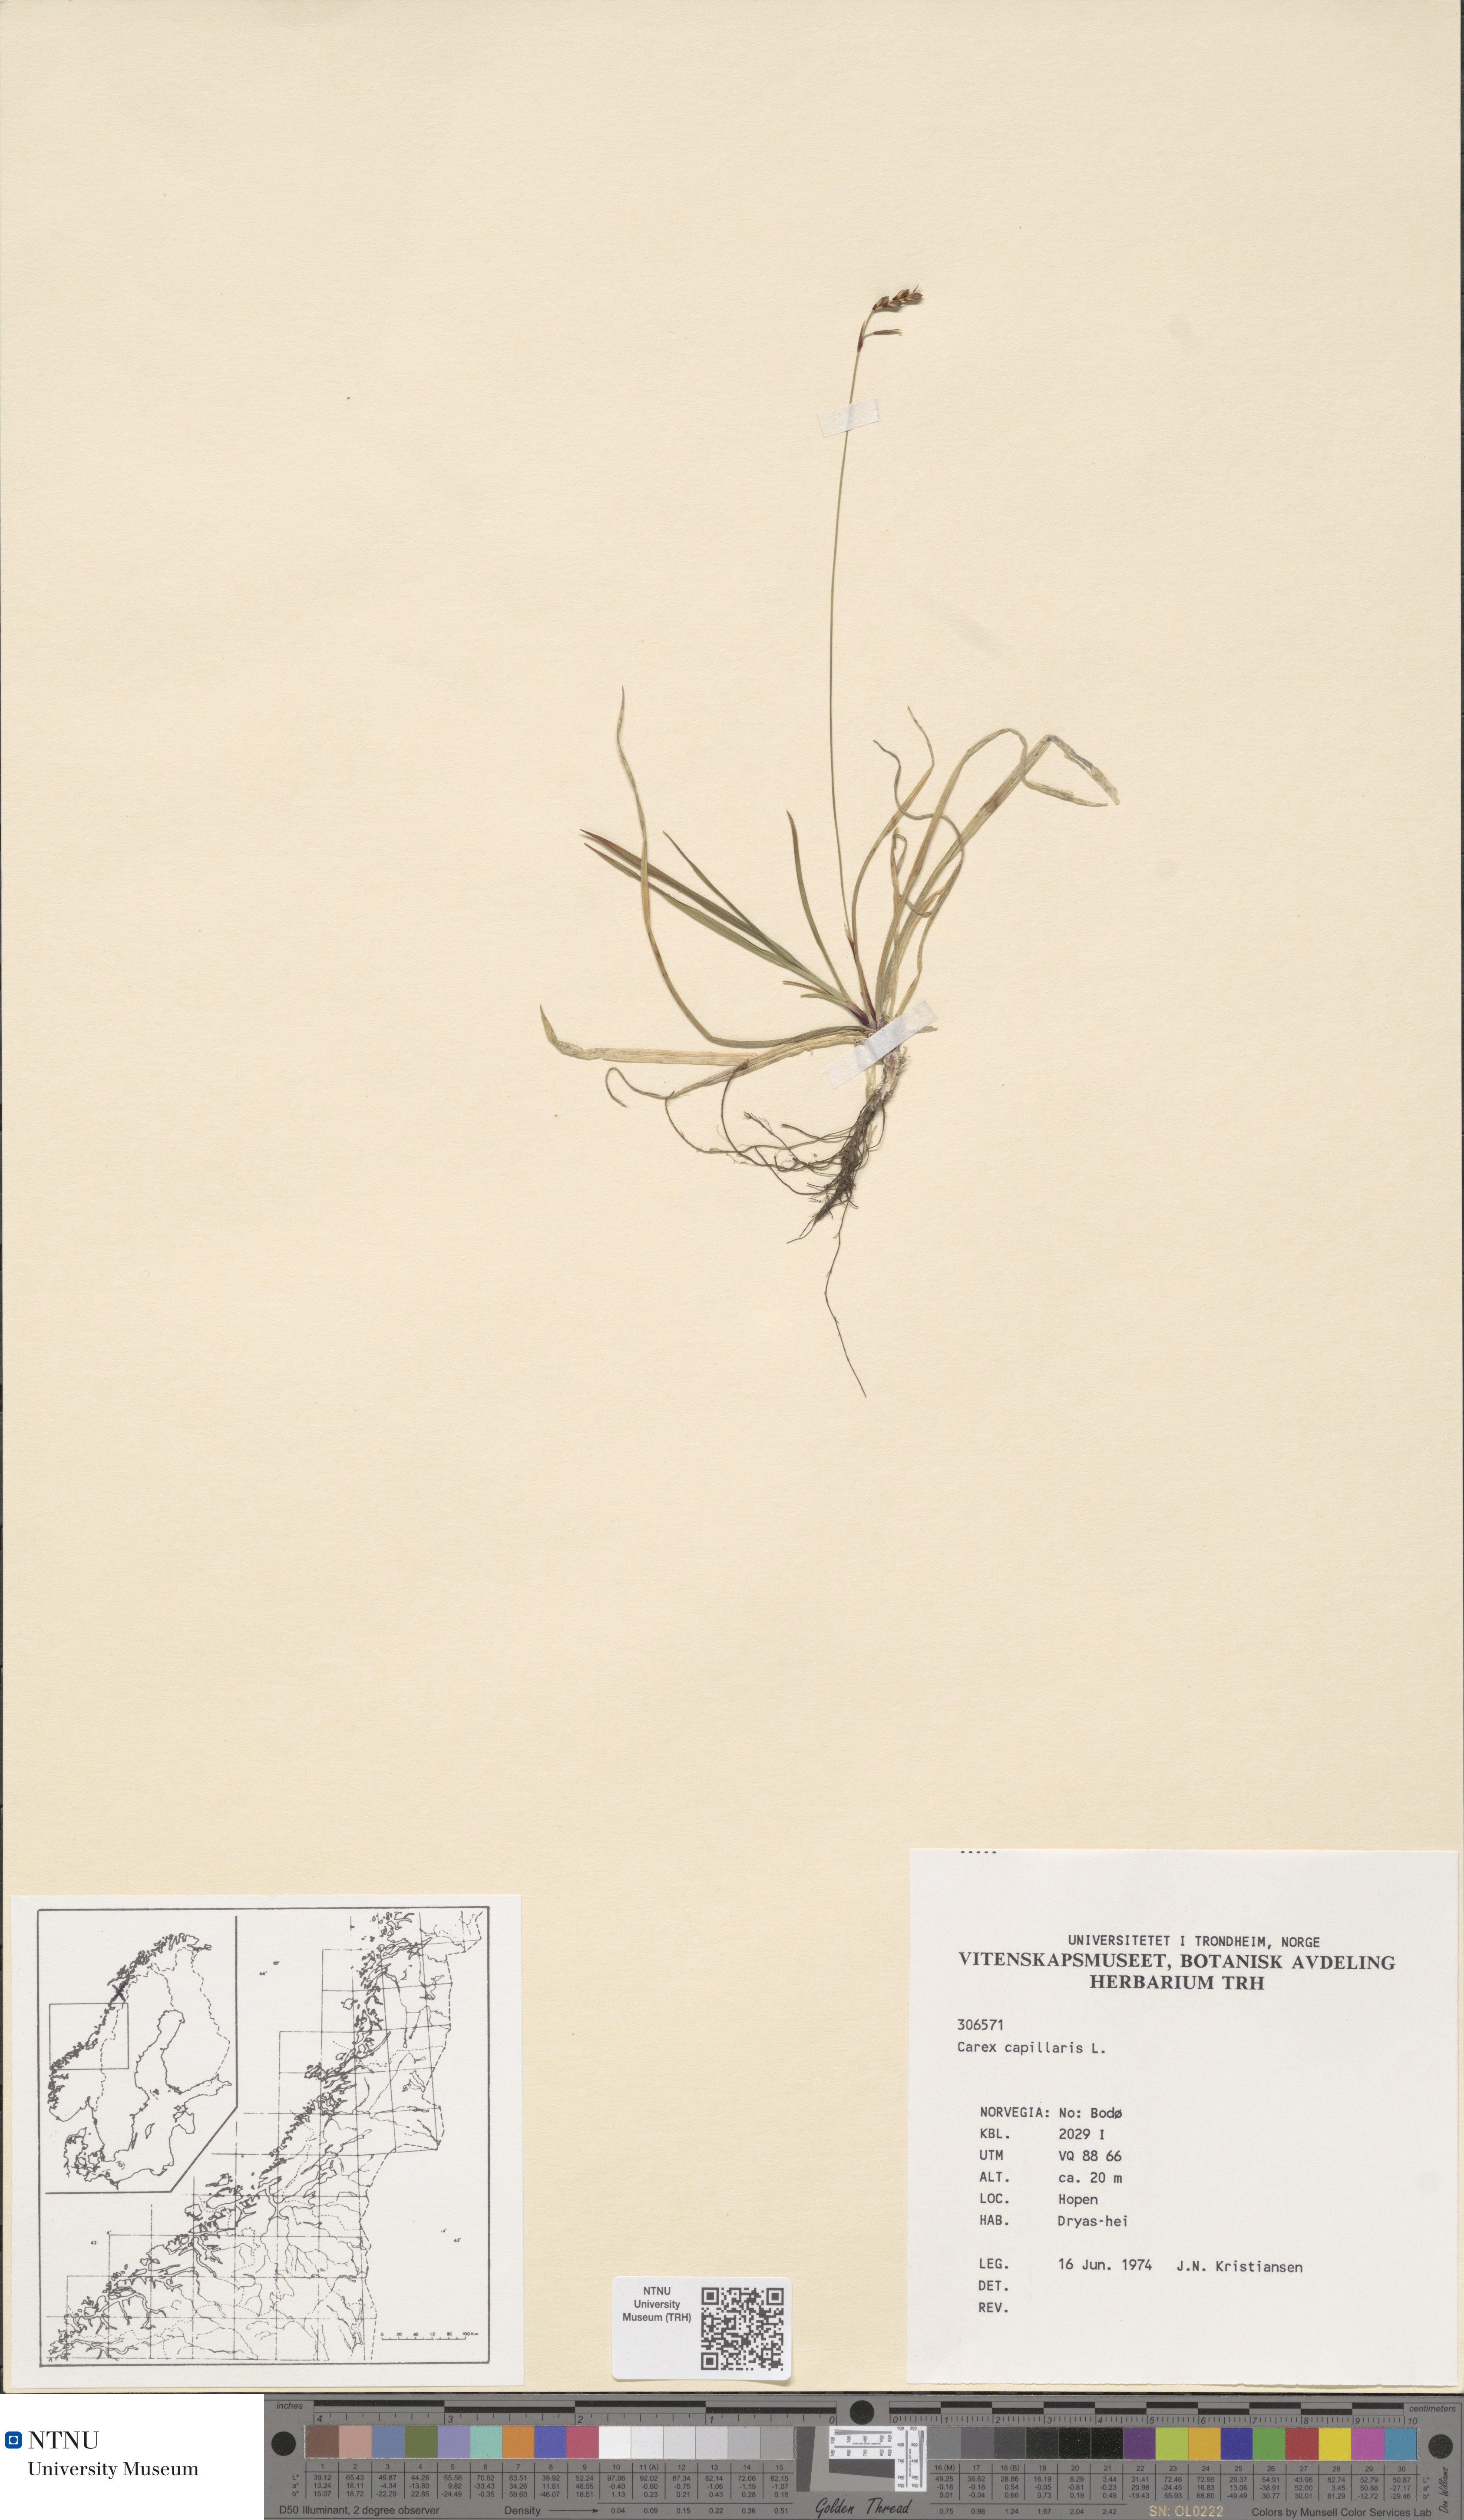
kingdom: Plantae
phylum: Tracheophyta
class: Liliopsida
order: Poales
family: Cyperaceae
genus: Carex
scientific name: Carex digitata
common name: Fingered sedge
